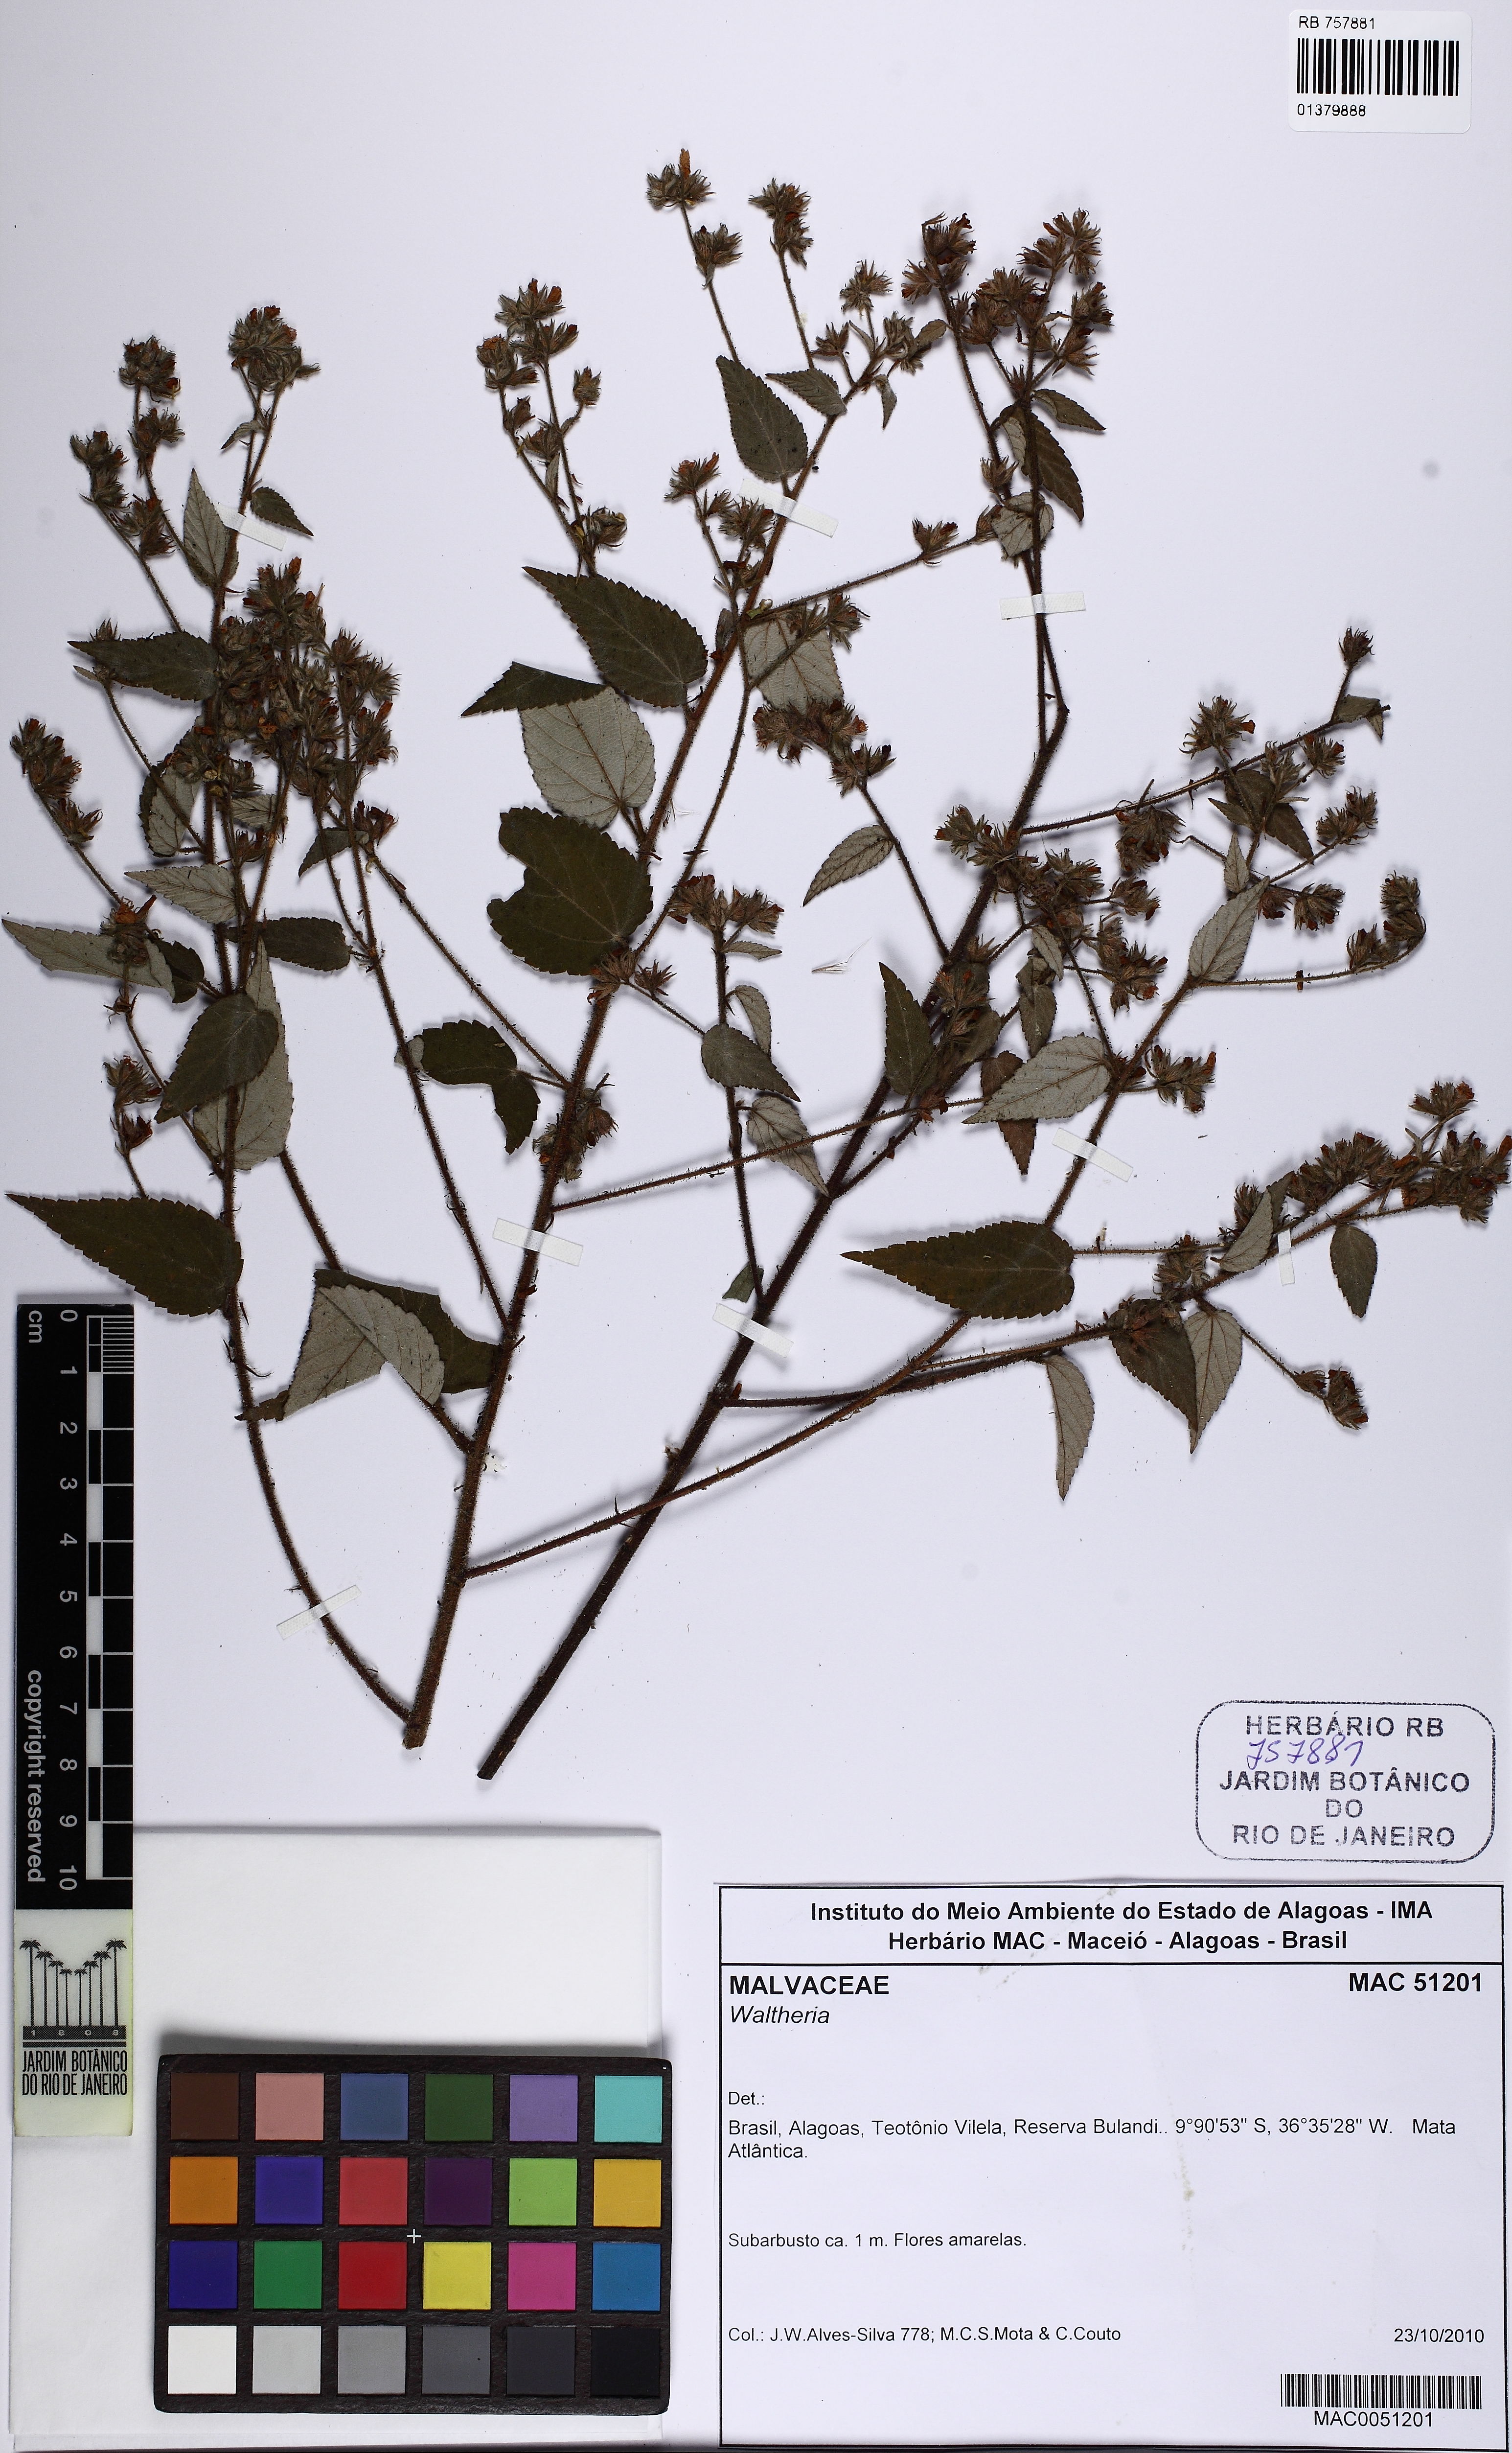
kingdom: Plantae
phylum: Tracheophyta
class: Magnoliopsida
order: Malvales
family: Malvaceae
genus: Waltheria
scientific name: Waltheria viscosissima
